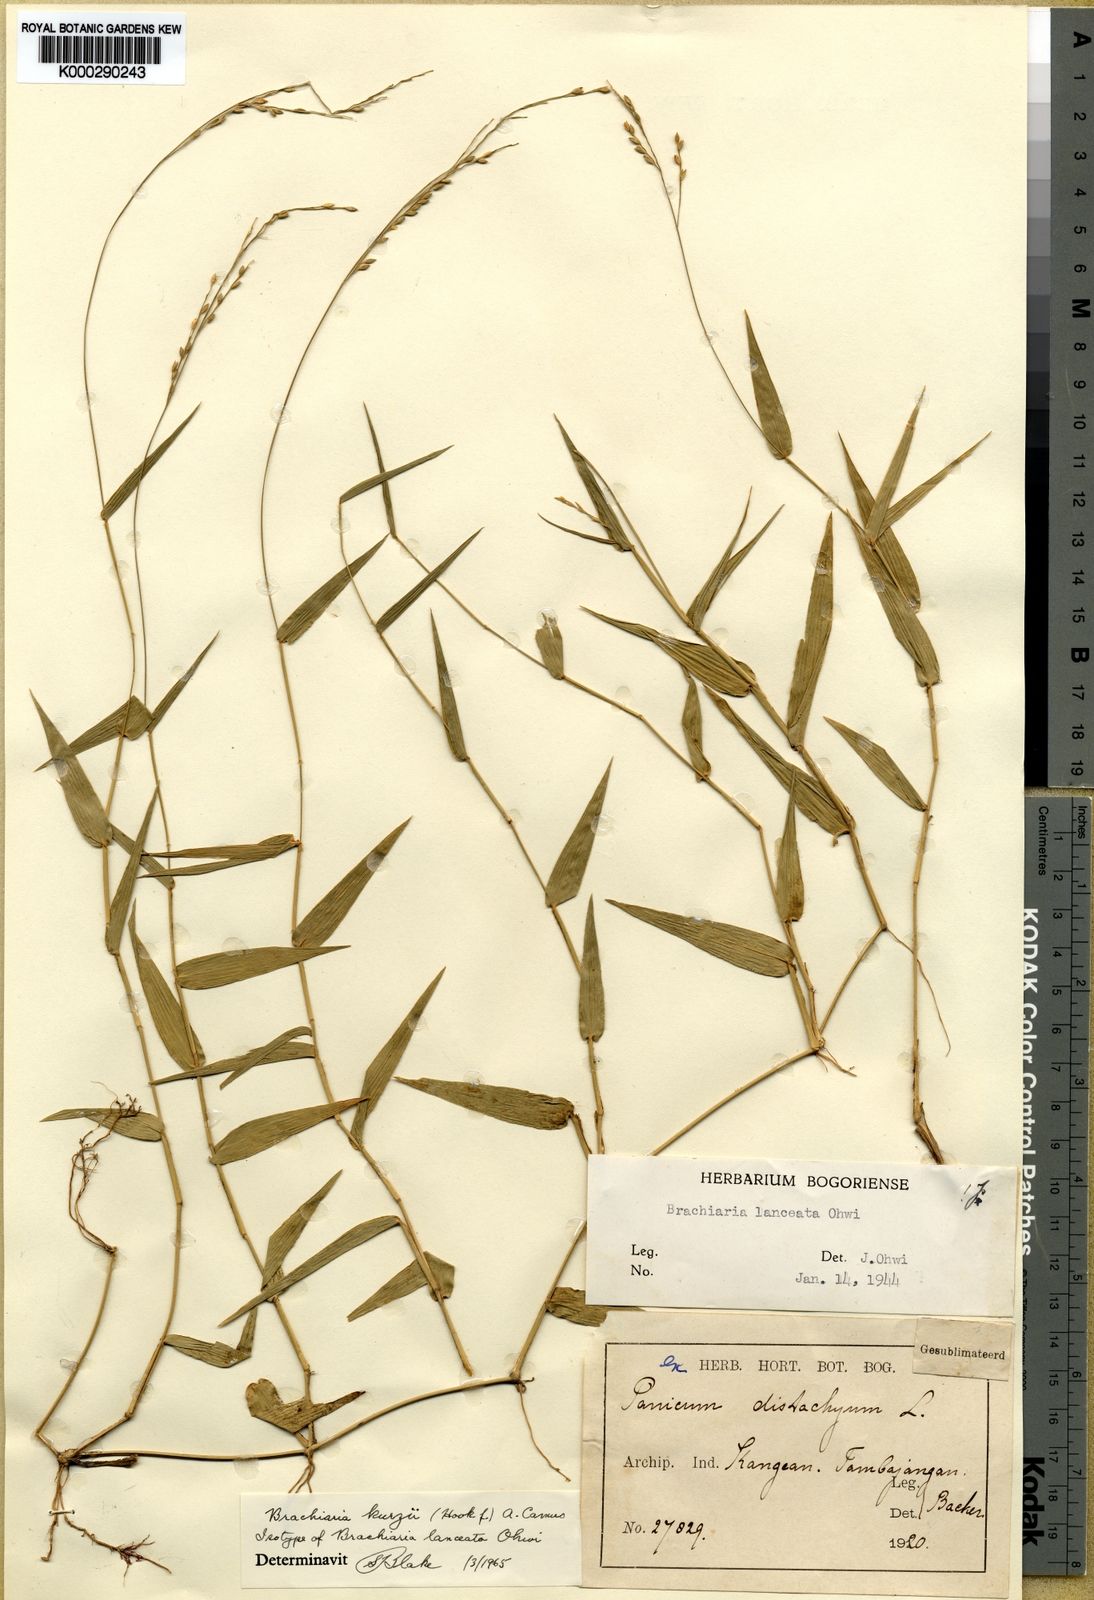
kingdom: Plantae
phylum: Tracheophyta
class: Liliopsida
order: Poales
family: Poaceae
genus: Urochloa
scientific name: Urochloa kurzii
